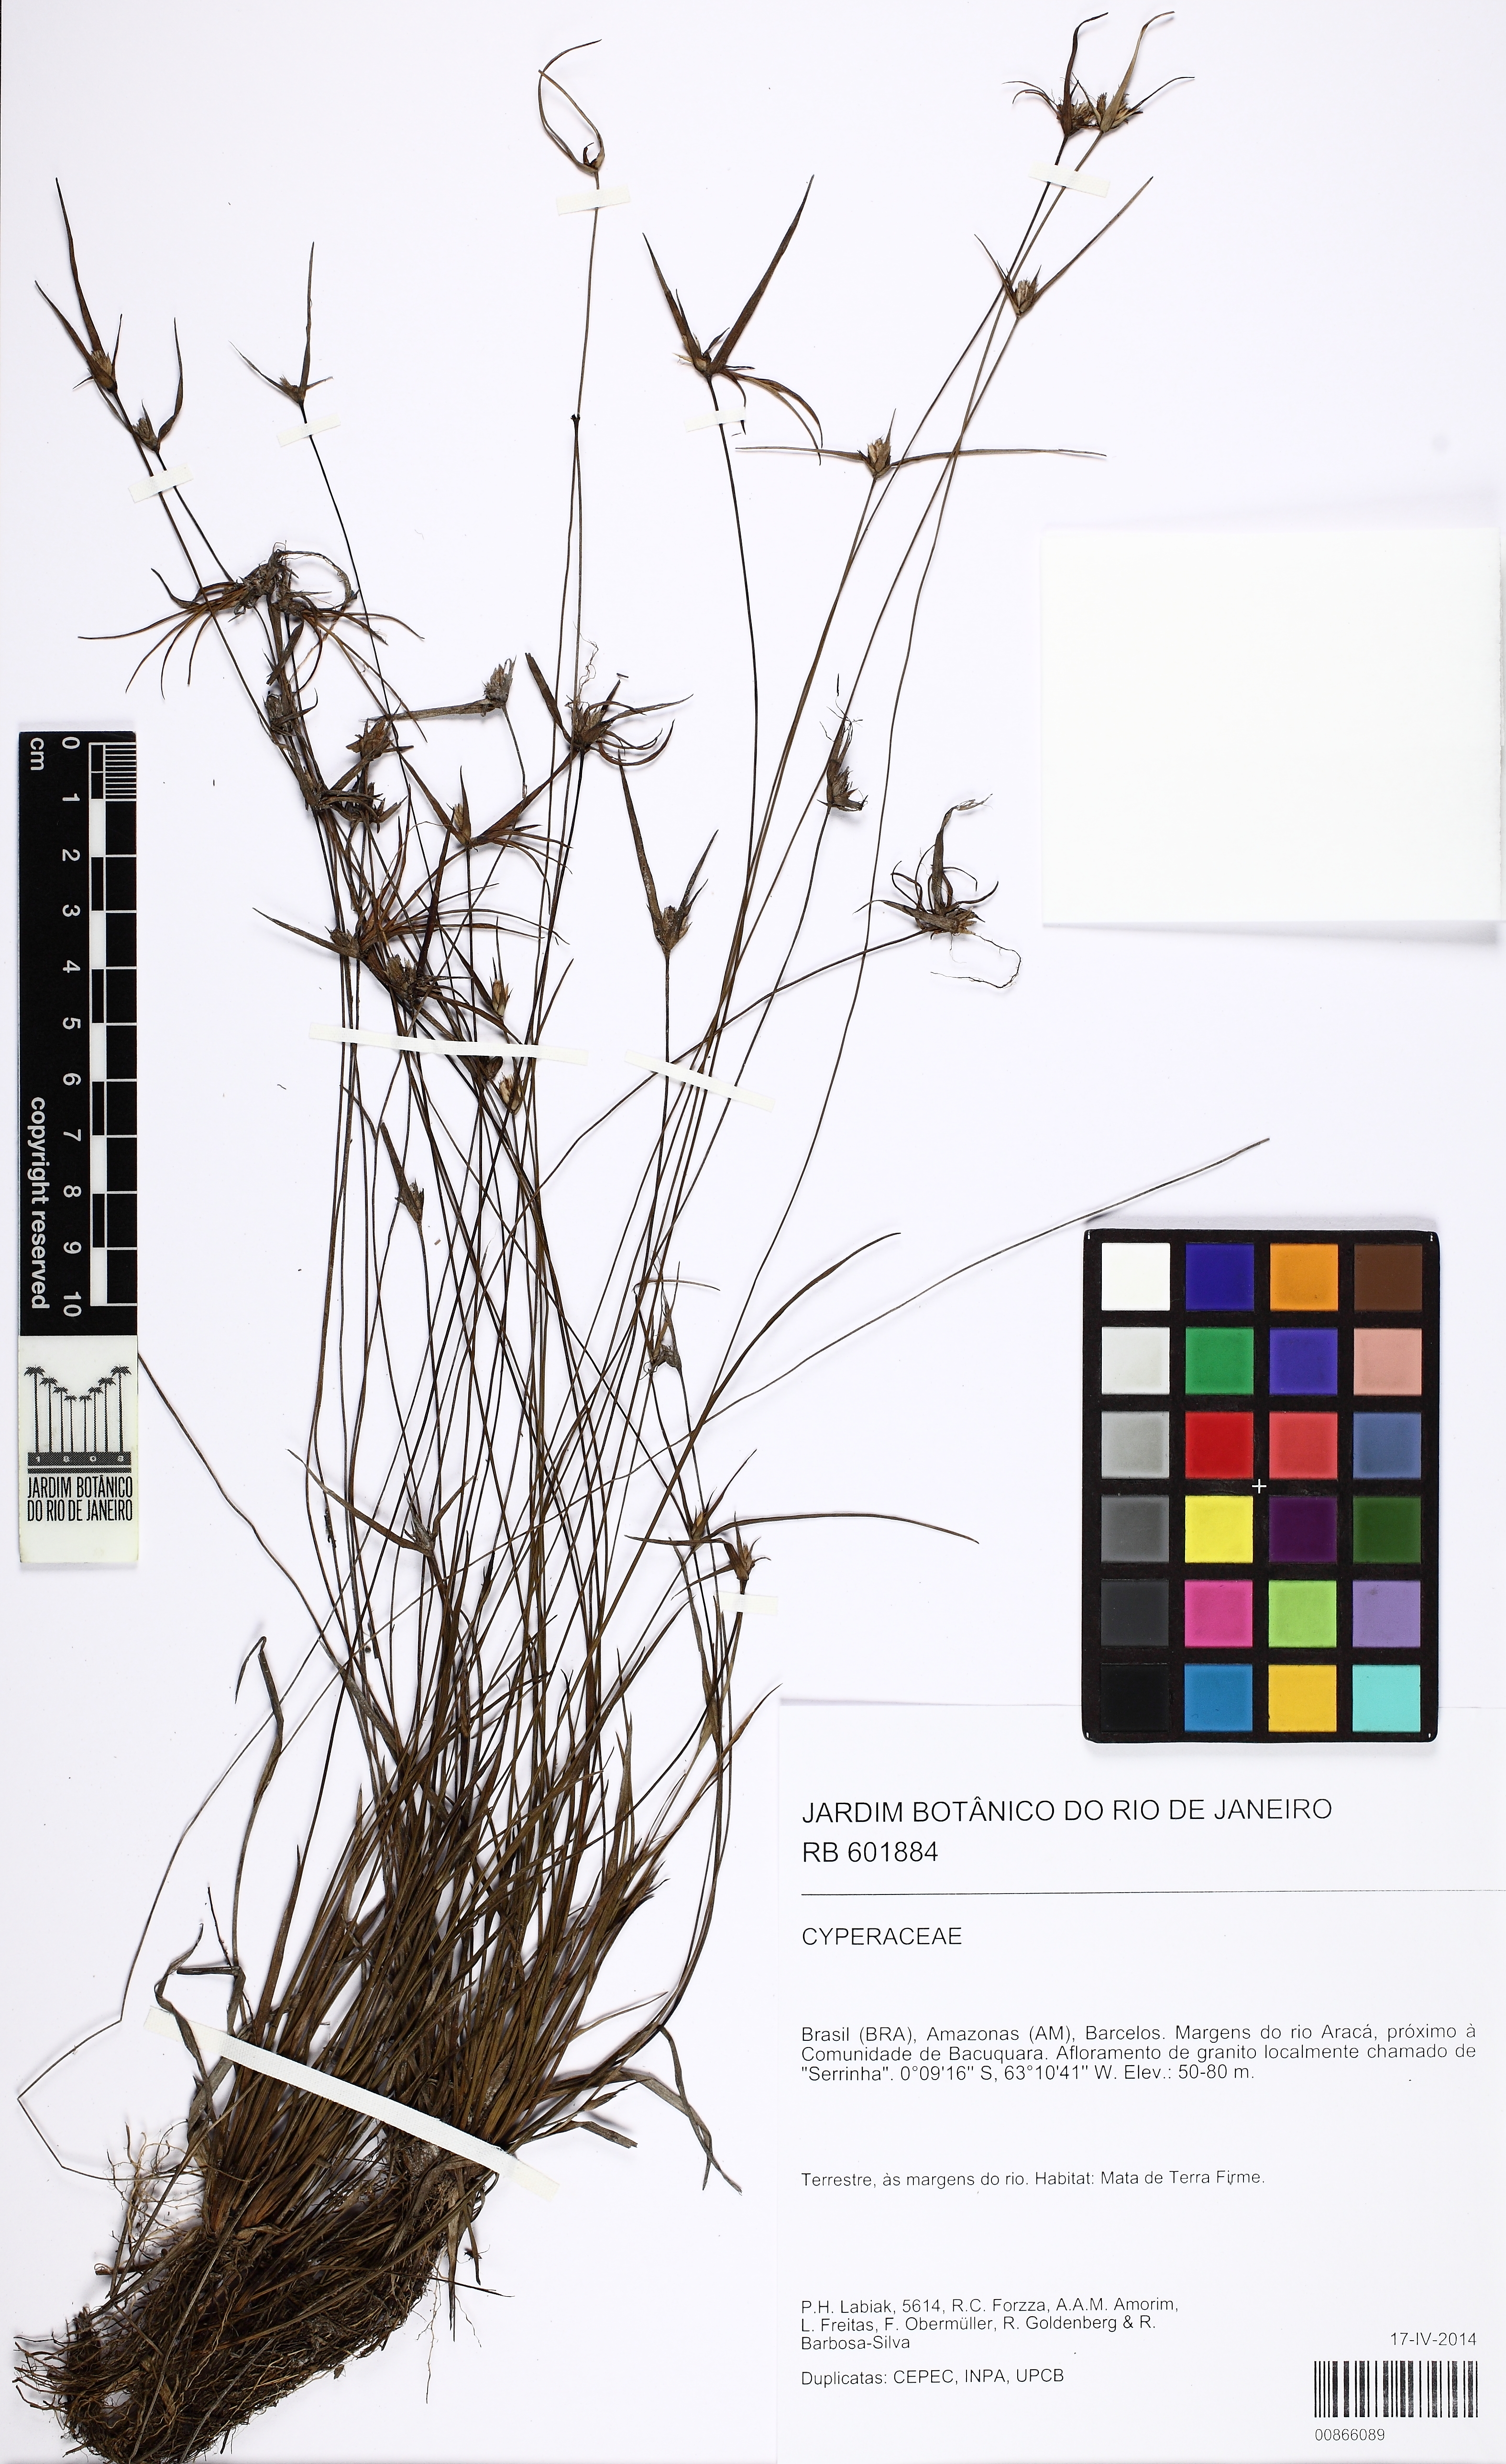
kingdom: Plantae
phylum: Tracheophyta
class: Liliopsida
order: Poales
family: Cyperaceae
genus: Rhynchospora
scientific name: Rhynchospora
